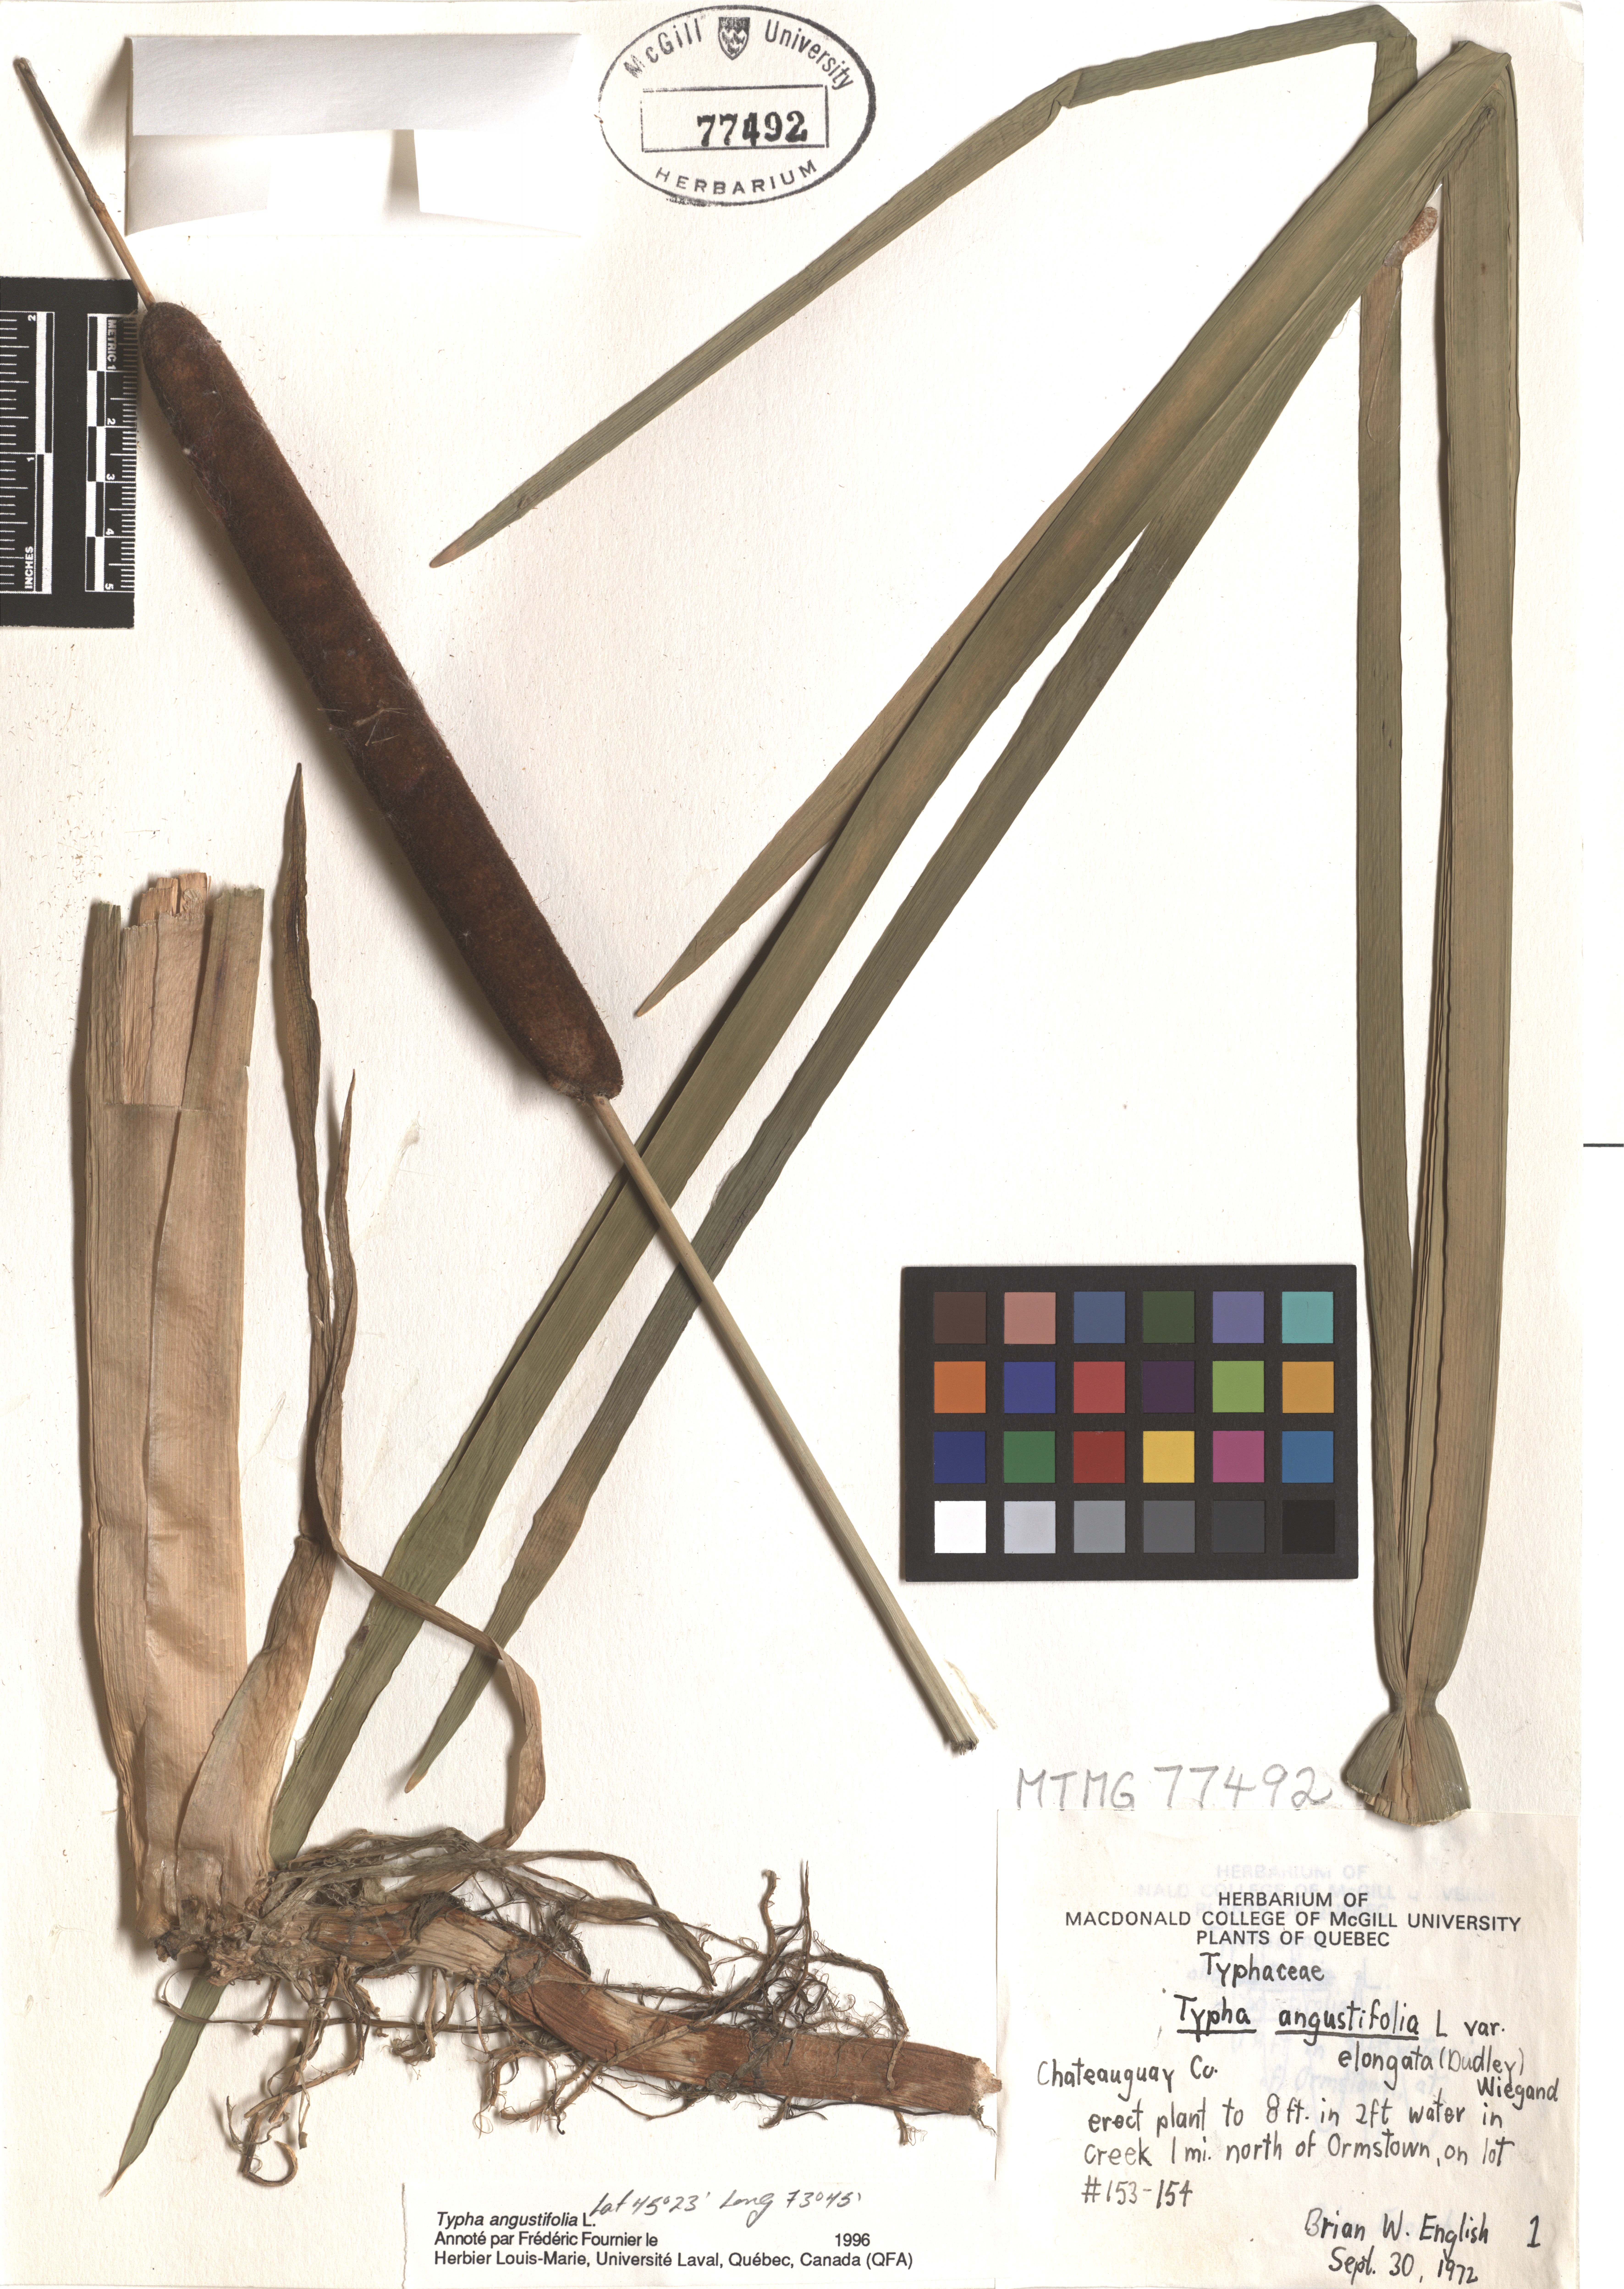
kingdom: Plantae
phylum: Tracheophyta
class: Liliopsida
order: Poales
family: Typhaceae
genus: Typha
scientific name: Typha angustifolia
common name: Lesser bulrush
